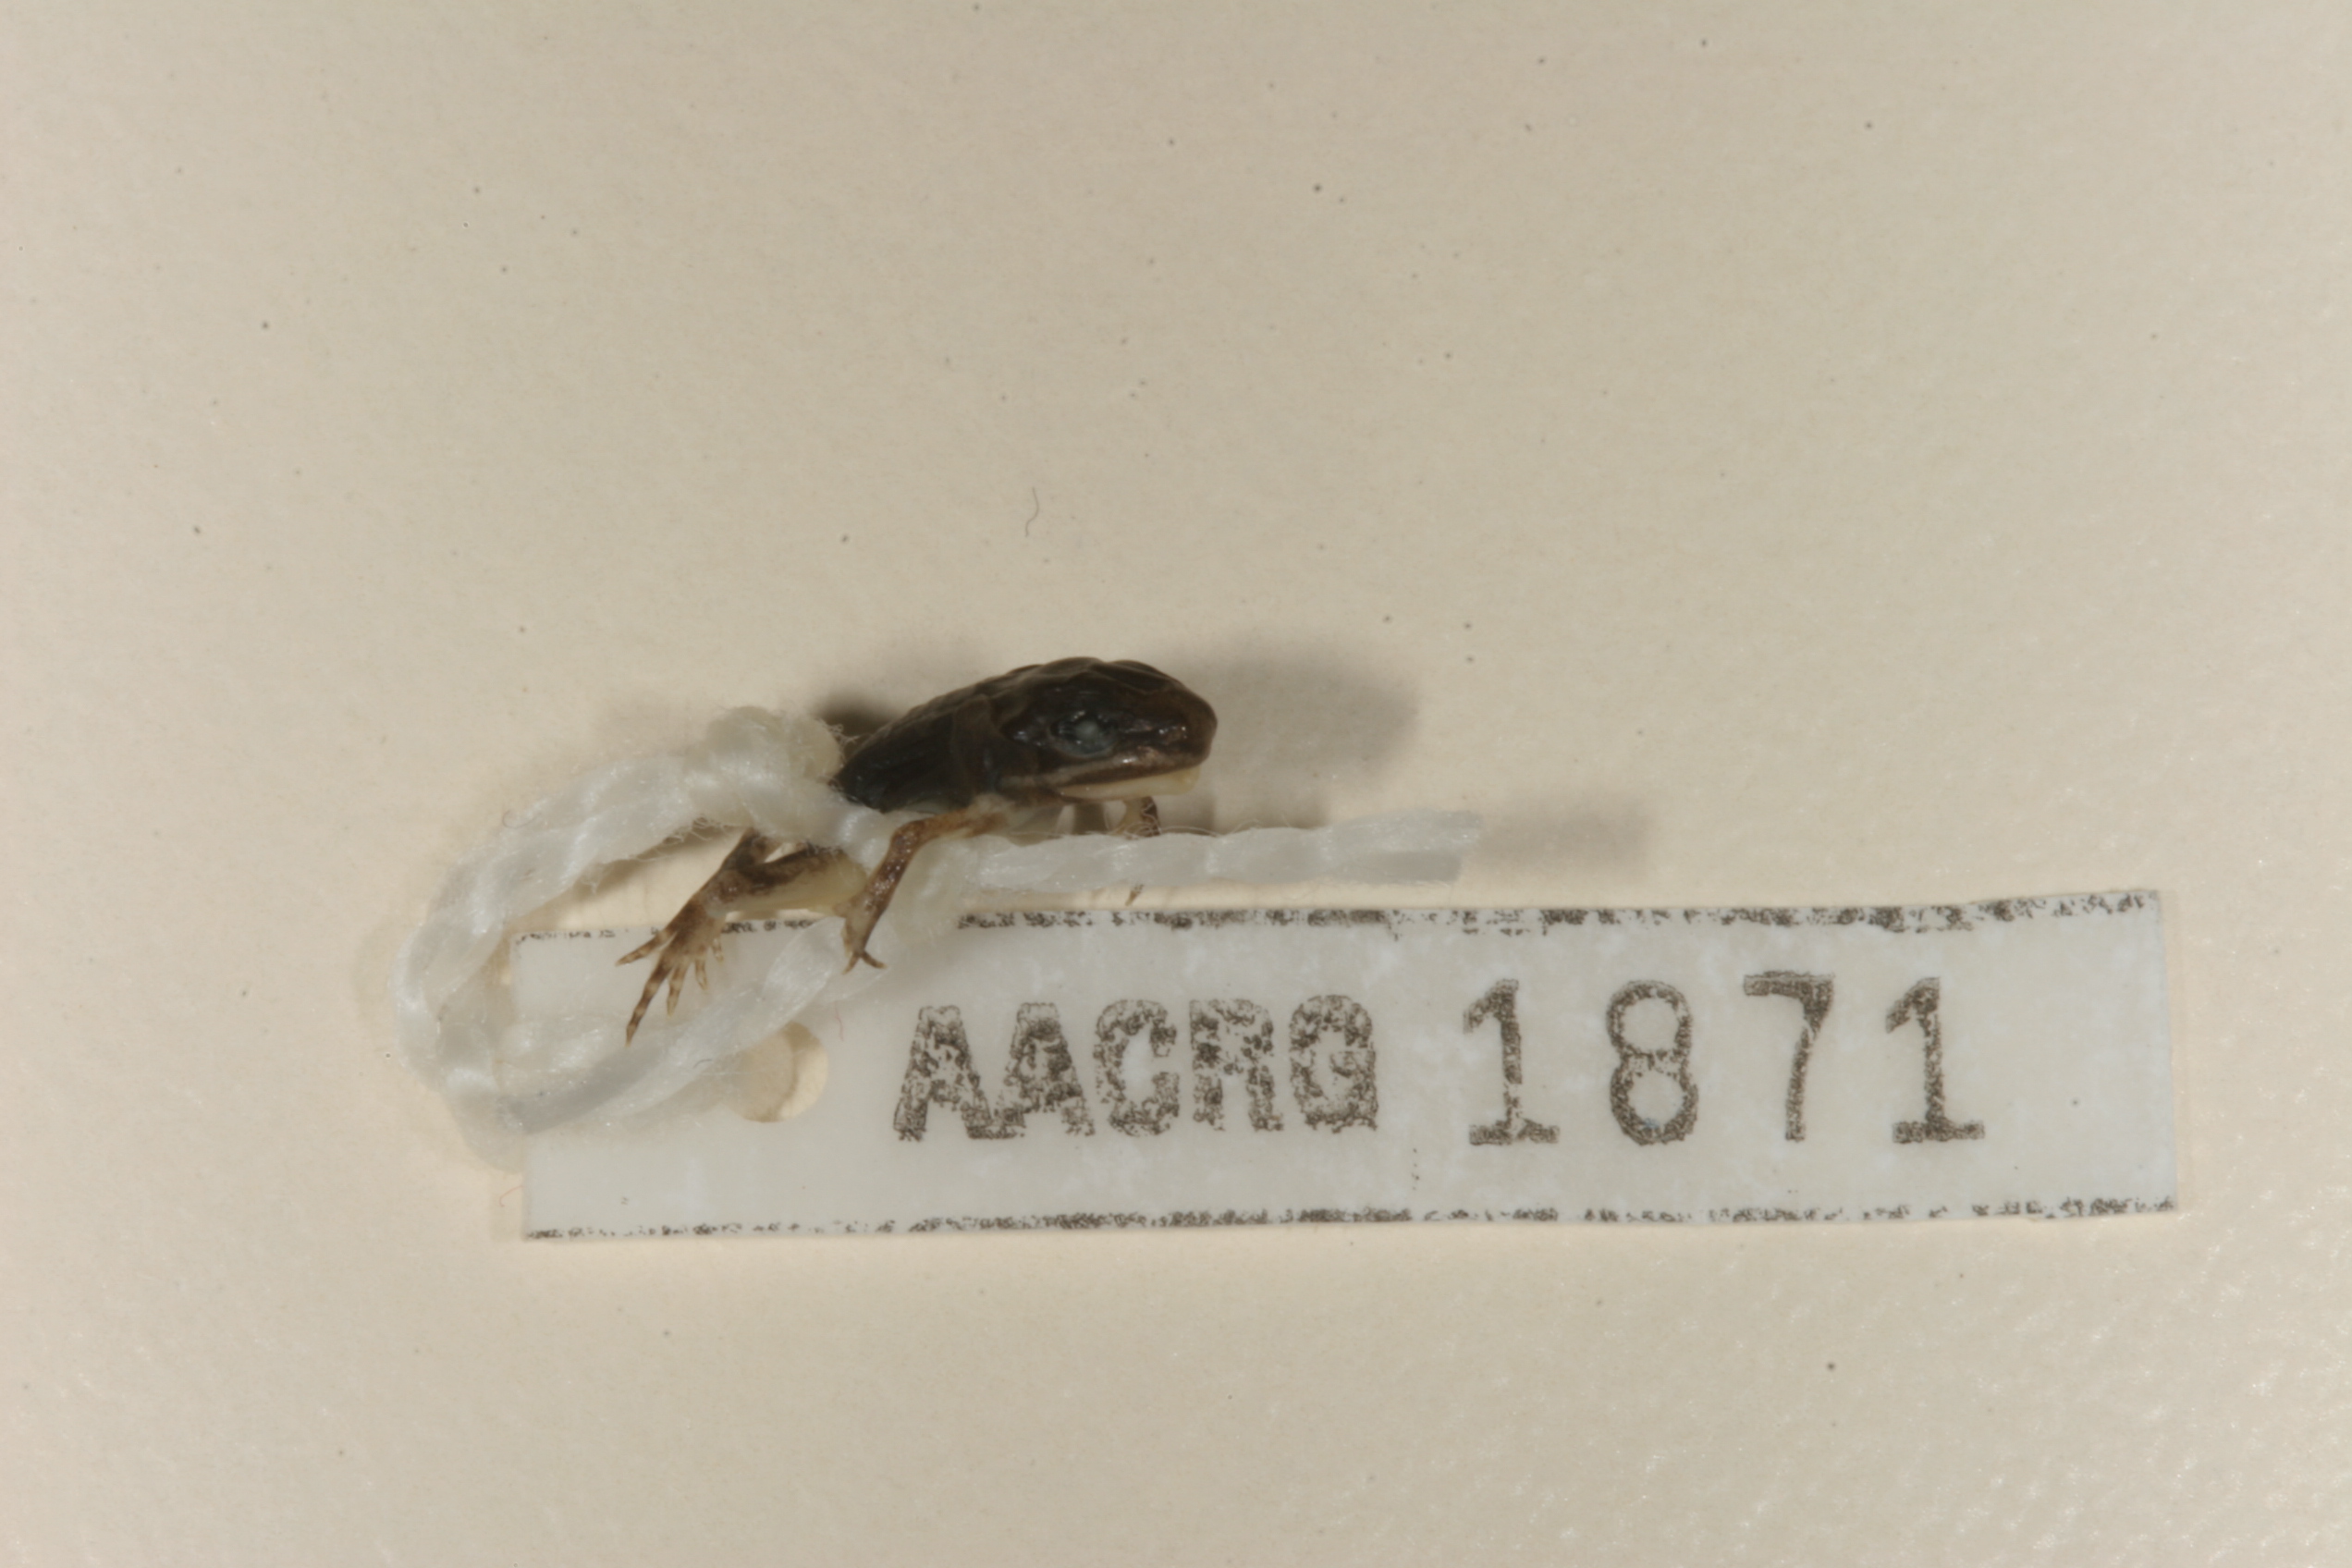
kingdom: Animalia
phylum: Chordata
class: Amphibia
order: Anura
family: Ptychadenidae
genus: Ptychadena
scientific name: Ptychadena anchietae
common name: Anchieta's ridged frog
